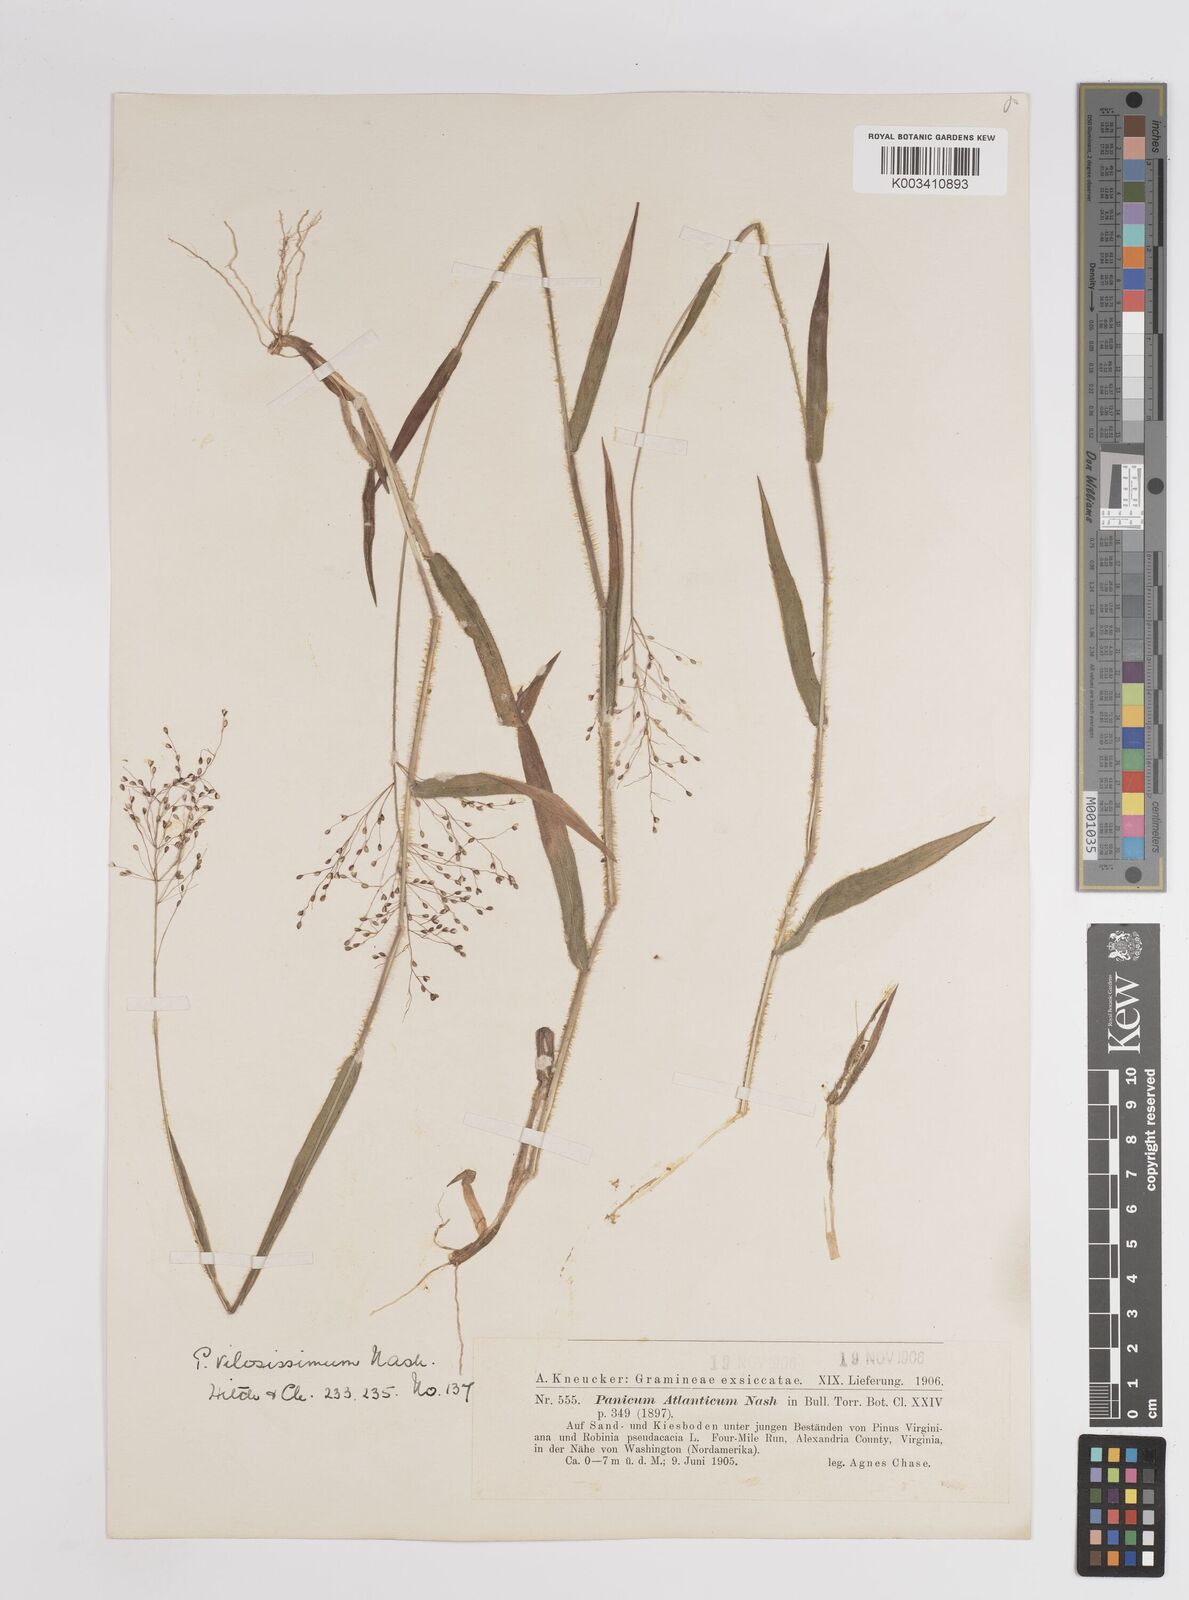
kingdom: Plantae
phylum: Tracheophyta
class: Liliopsida
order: Poales
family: Poaceae
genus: Dichanthelium
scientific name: Dichanthelium villosissimum
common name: White-haired panicgrass
